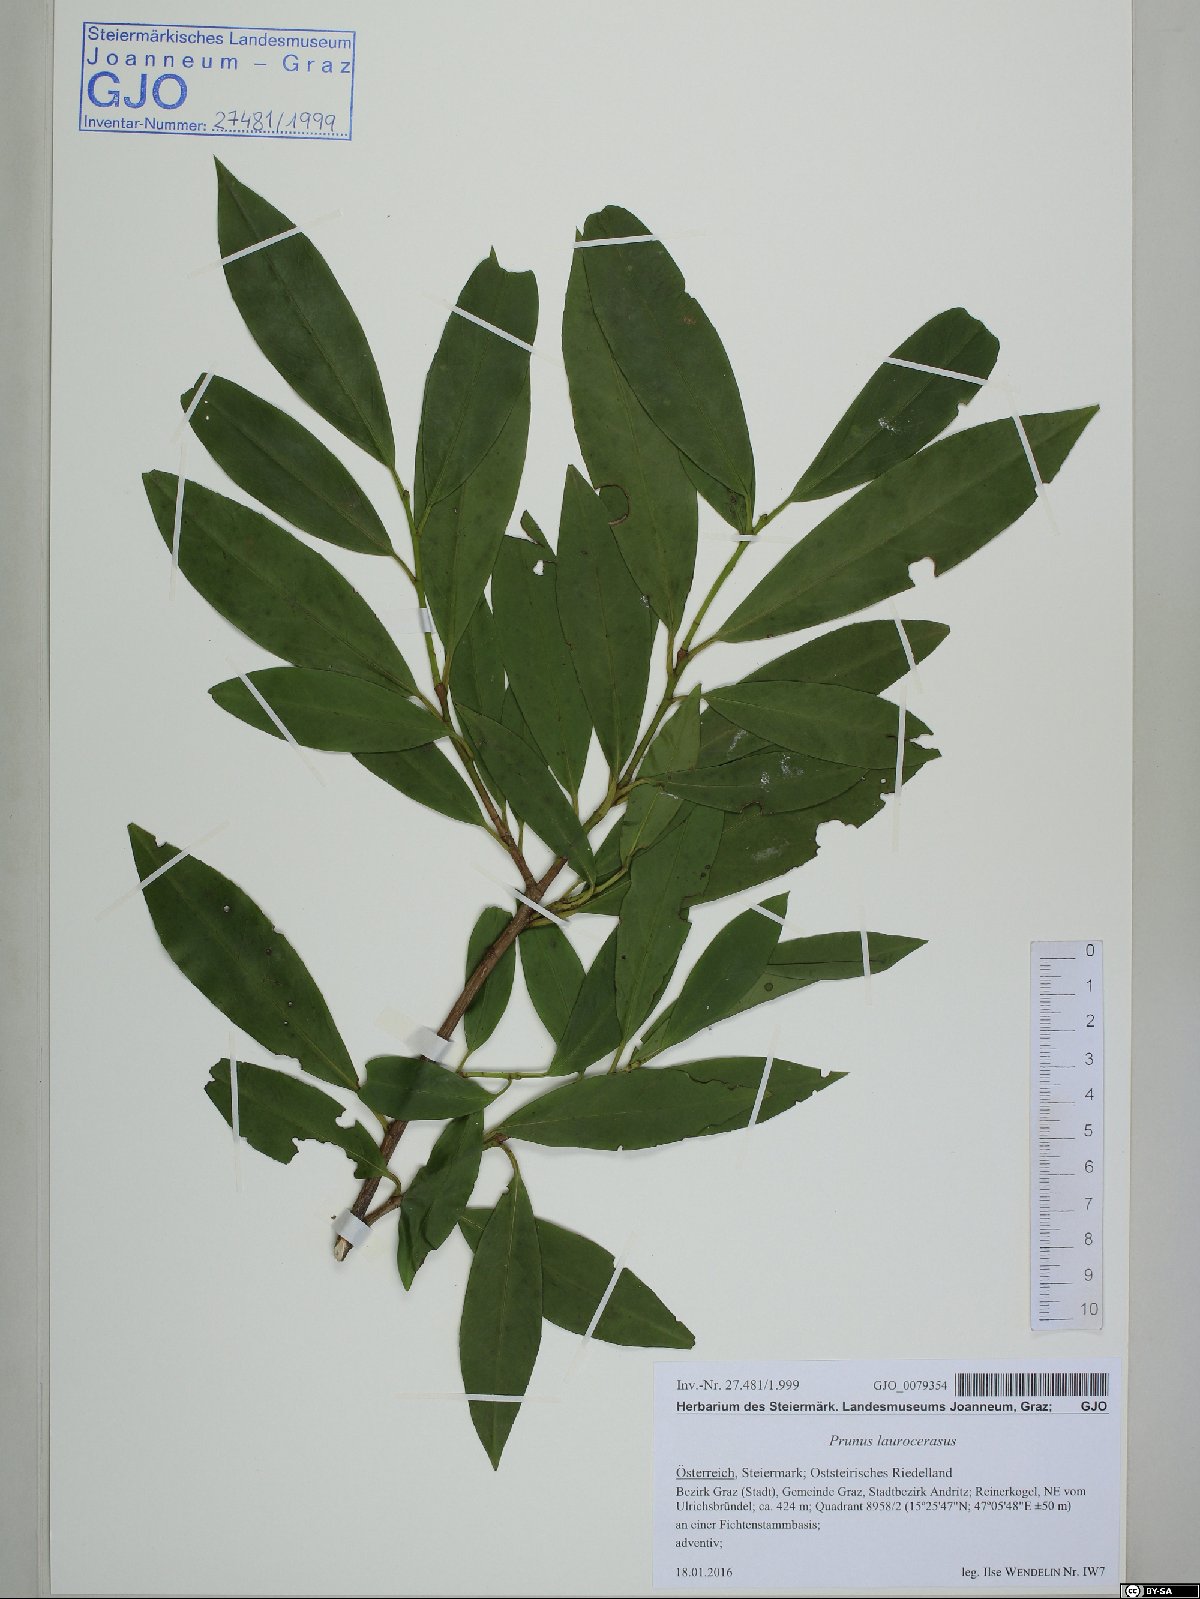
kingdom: Plantae
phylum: Tracheophyta
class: Magnoliopsida
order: Rosales
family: Rosaceae
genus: Prunus
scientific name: Prunus laurocerasus
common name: Cherry laurel
